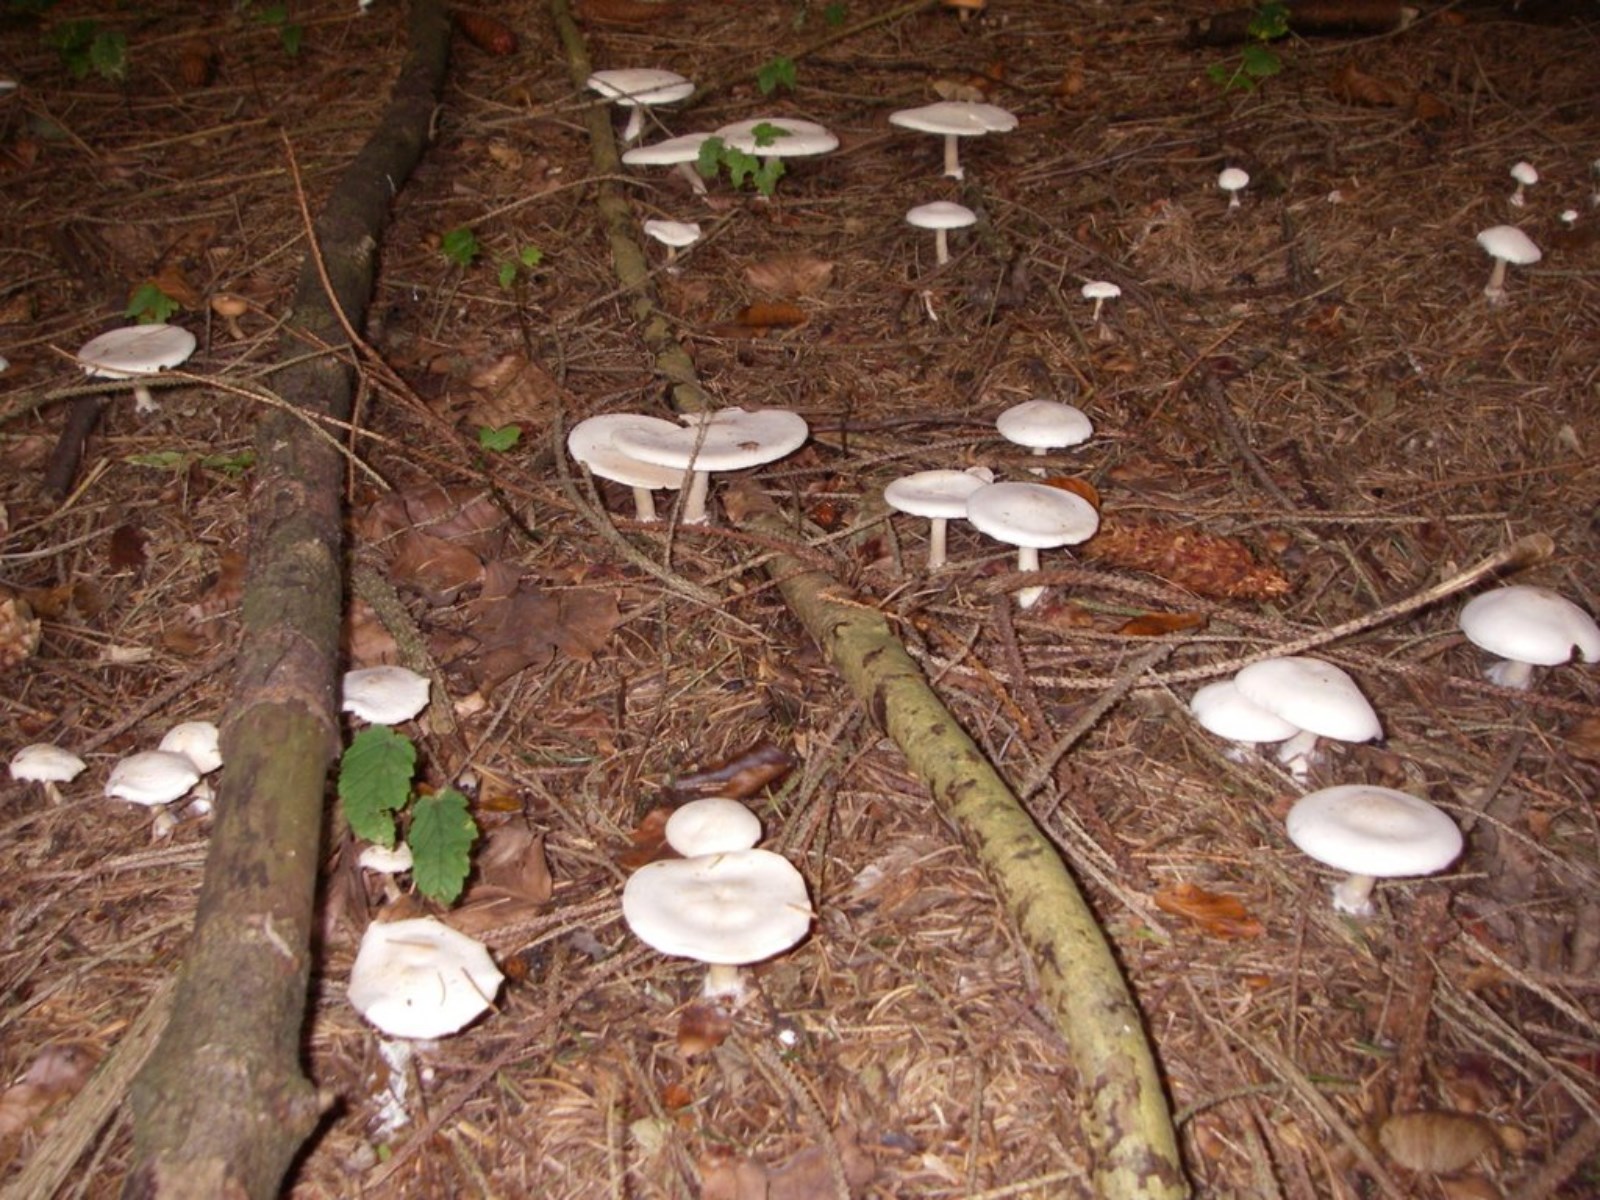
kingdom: Fungi
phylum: Basidiomycota
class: Agaricomycetes
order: Agaricales
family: Tricholomataceae
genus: Clitocybe
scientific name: Clitocybe
